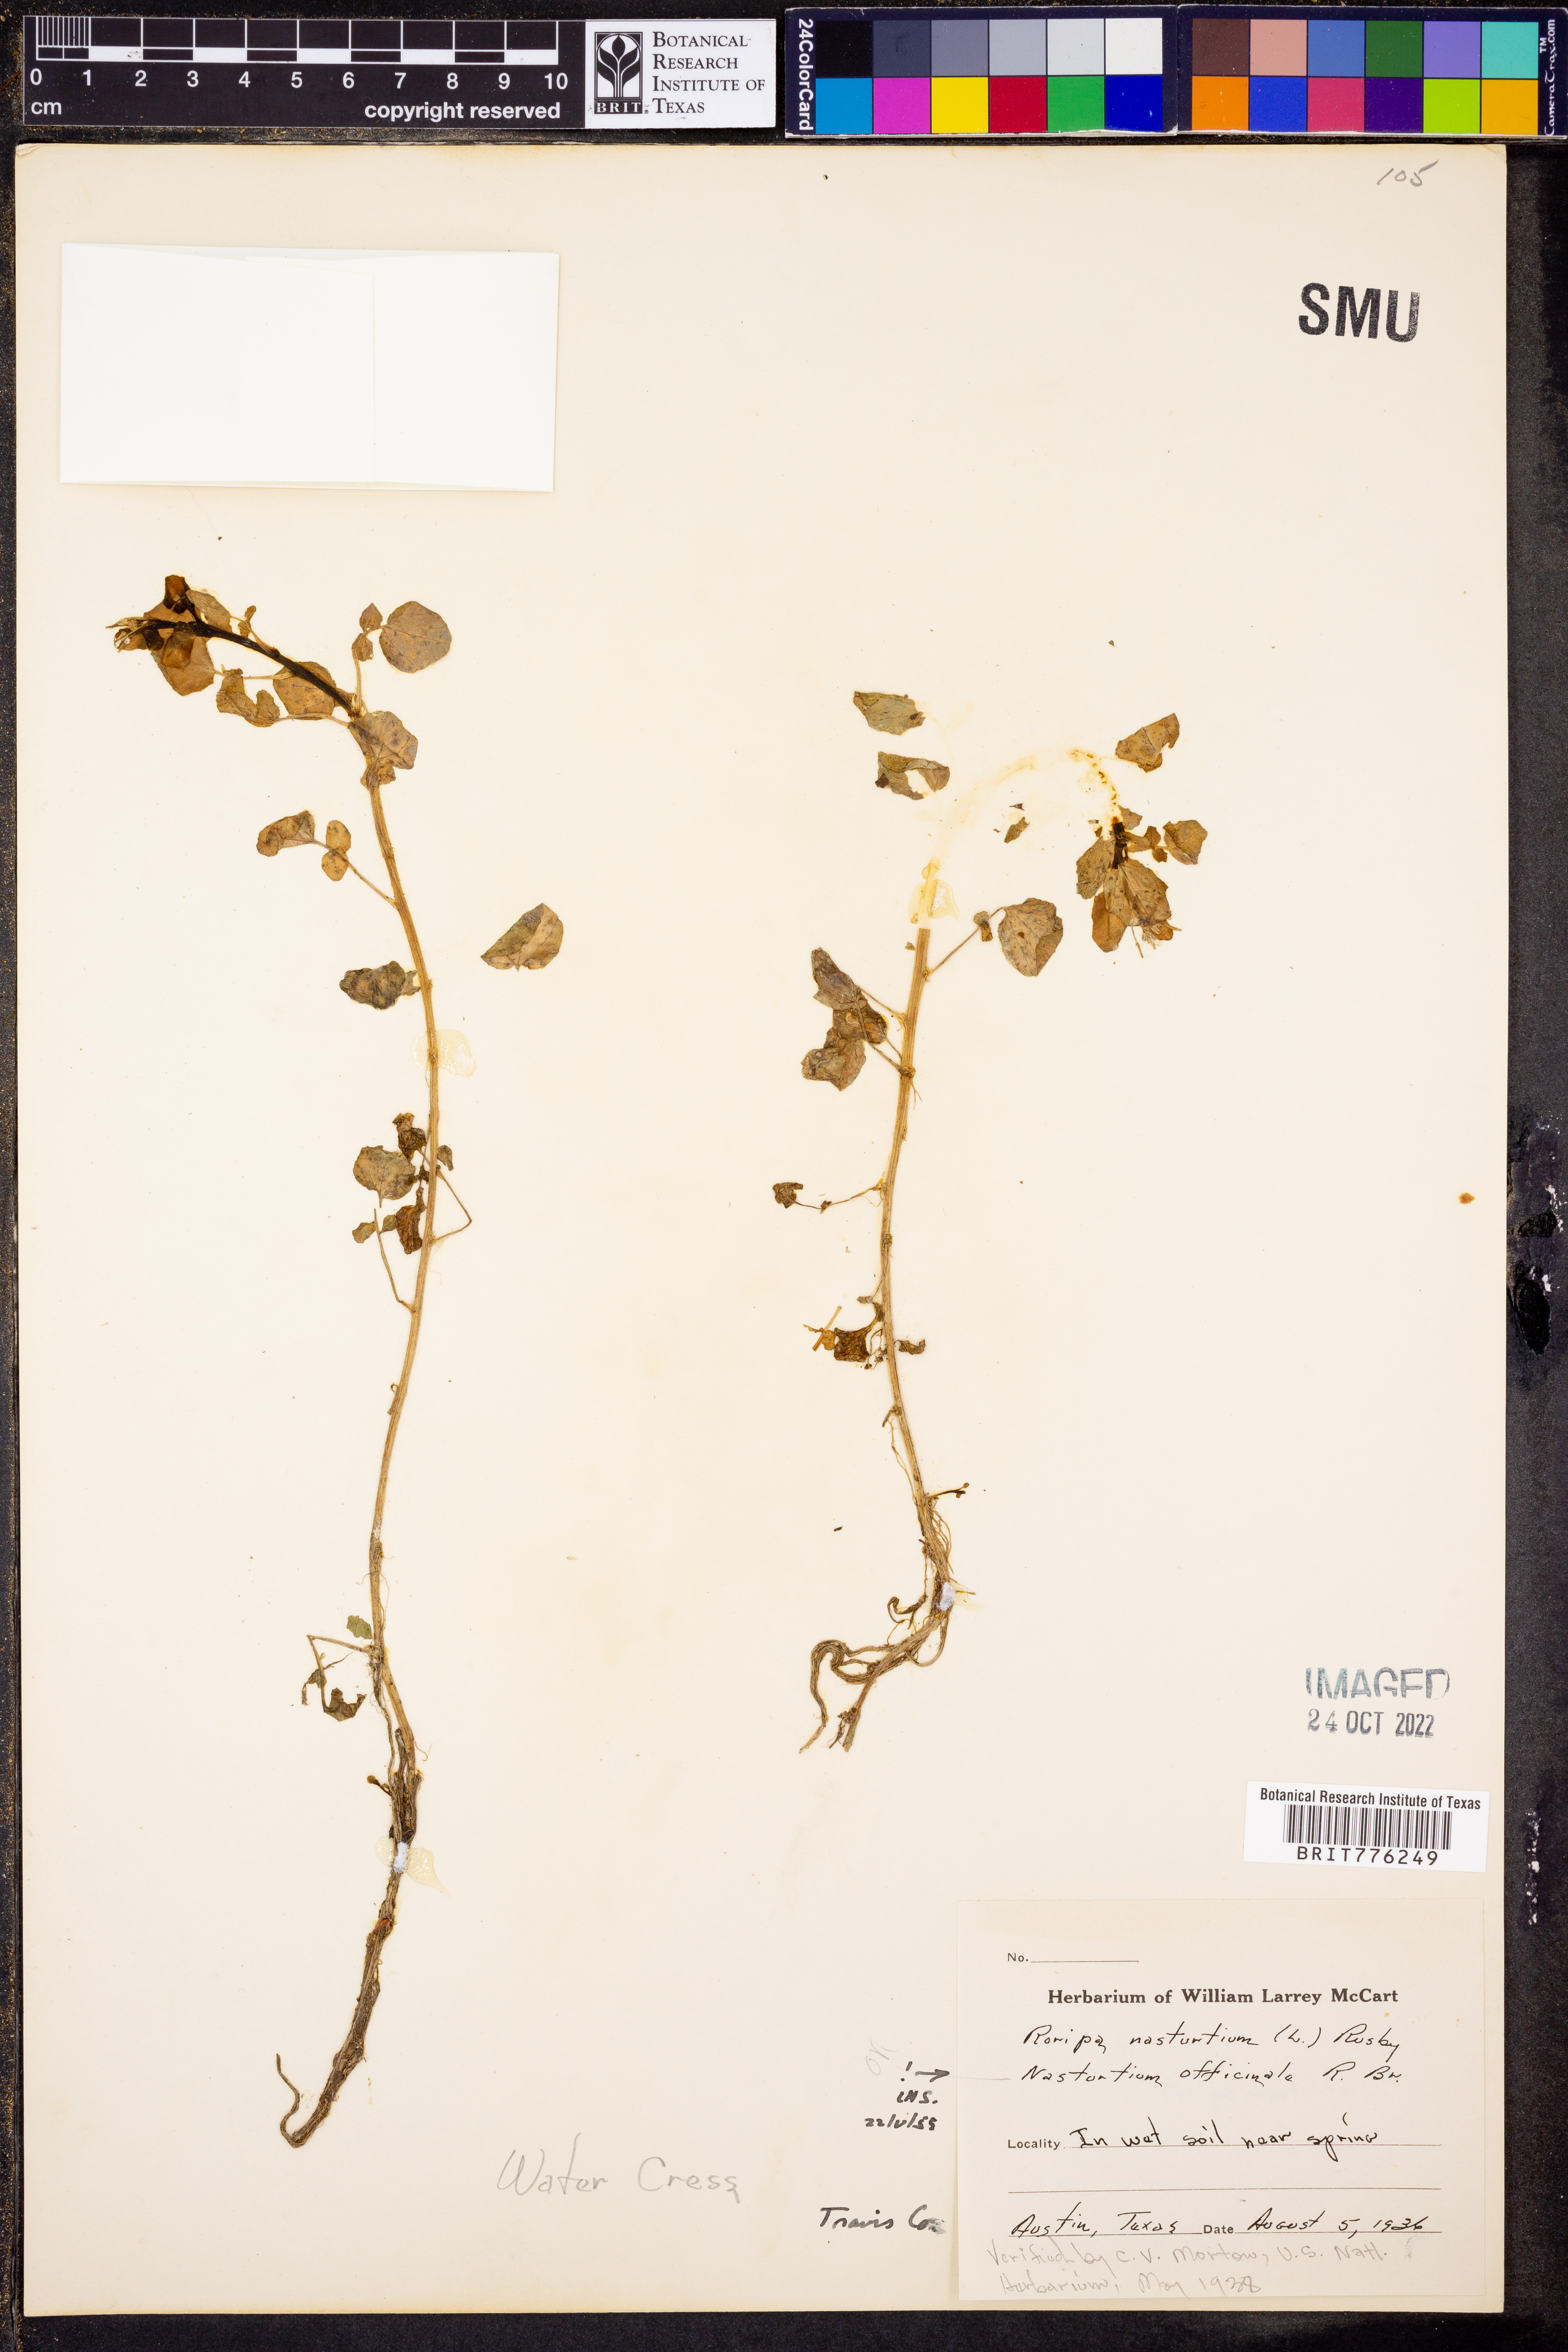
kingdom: Plantae
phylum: Tracheophyta
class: Magnoliopsida
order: Brassicales
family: Brassicaceae
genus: Nasturtium
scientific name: Nasturtium officinale
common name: Watercress
